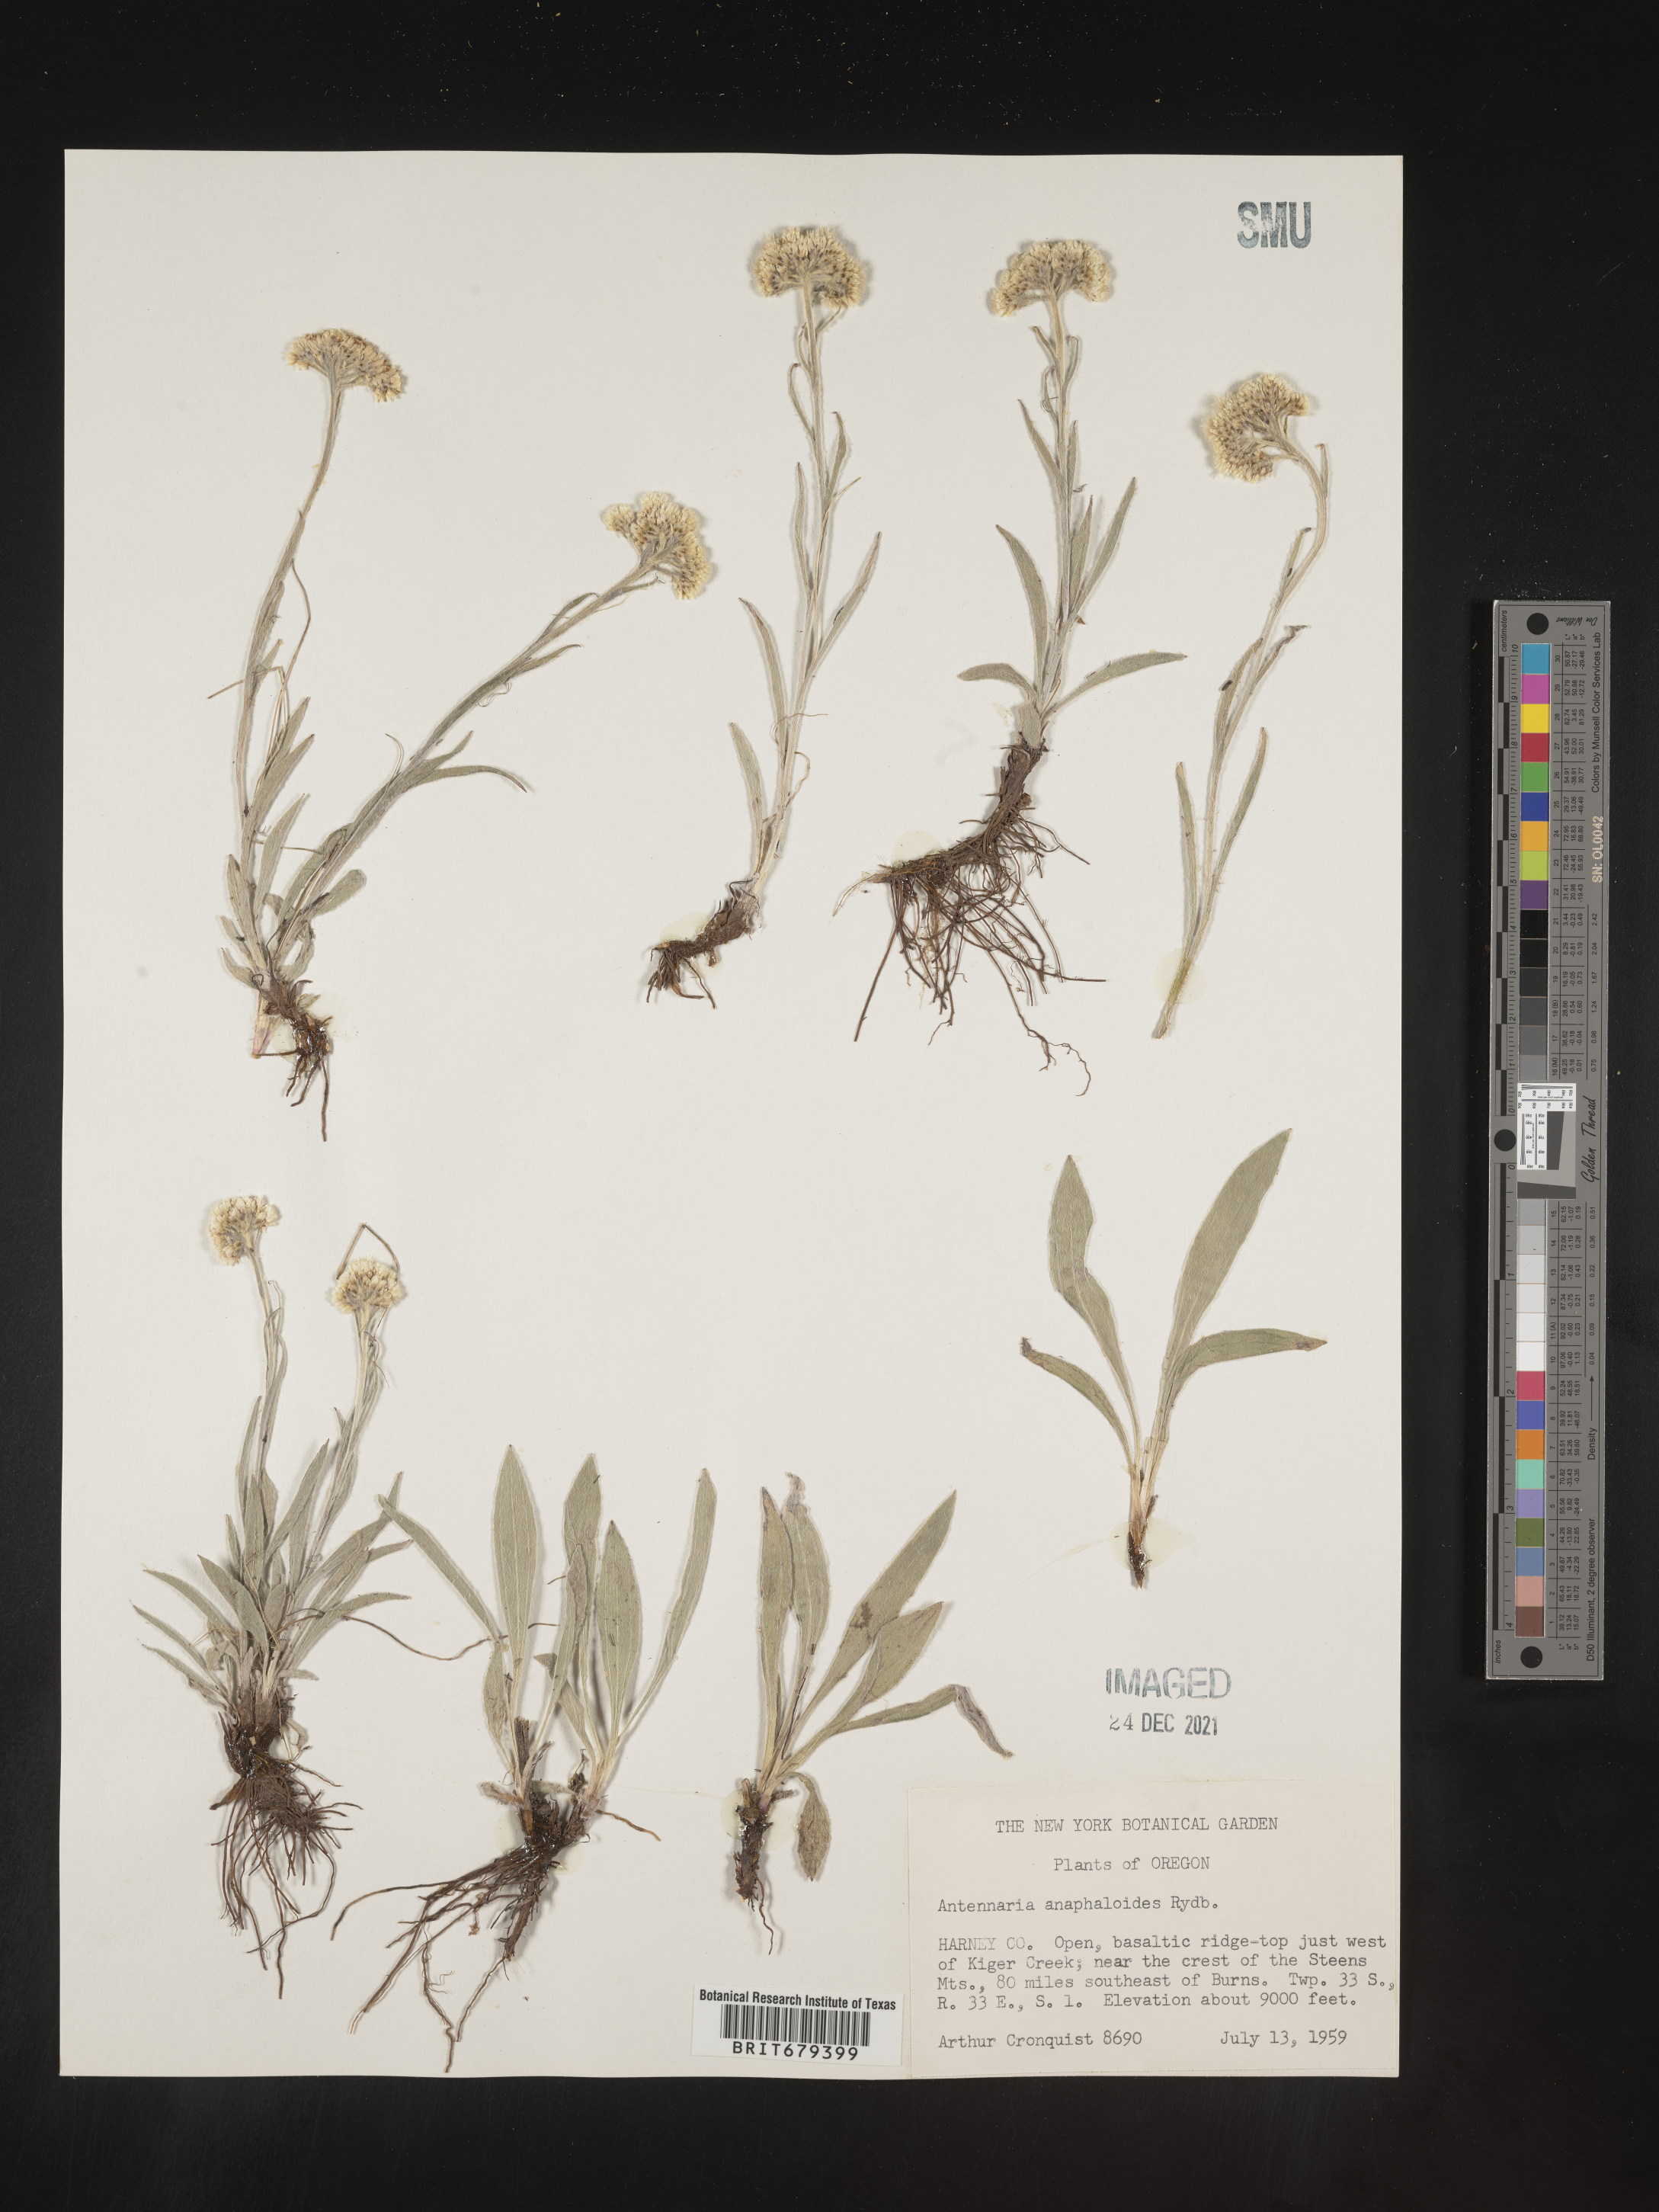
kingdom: Plantae
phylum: Tracheophyta
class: Magnoliopsida
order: Asterales
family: Asteraceae
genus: Antennaria
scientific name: Antennaria anaphaloides
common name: Tall pussytoes
